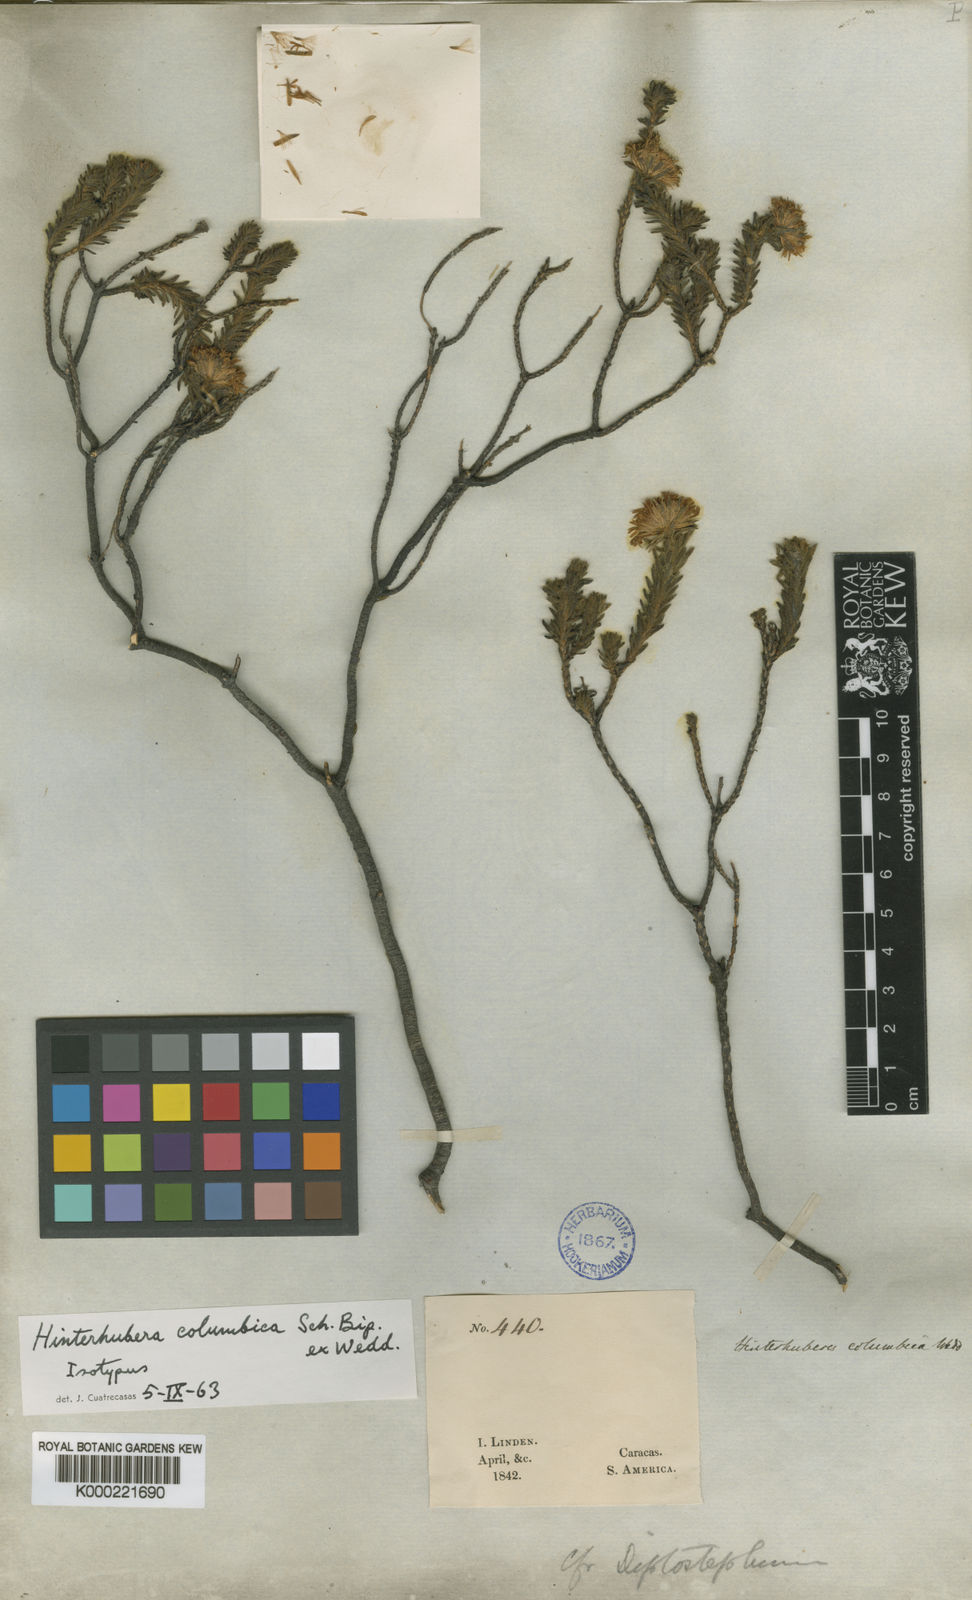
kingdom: Plantae
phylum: Tracheophyta
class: Magnoliopsida
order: Asterales
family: Asteraceae
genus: Hinterhubera
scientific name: Hinterhubera columbica
